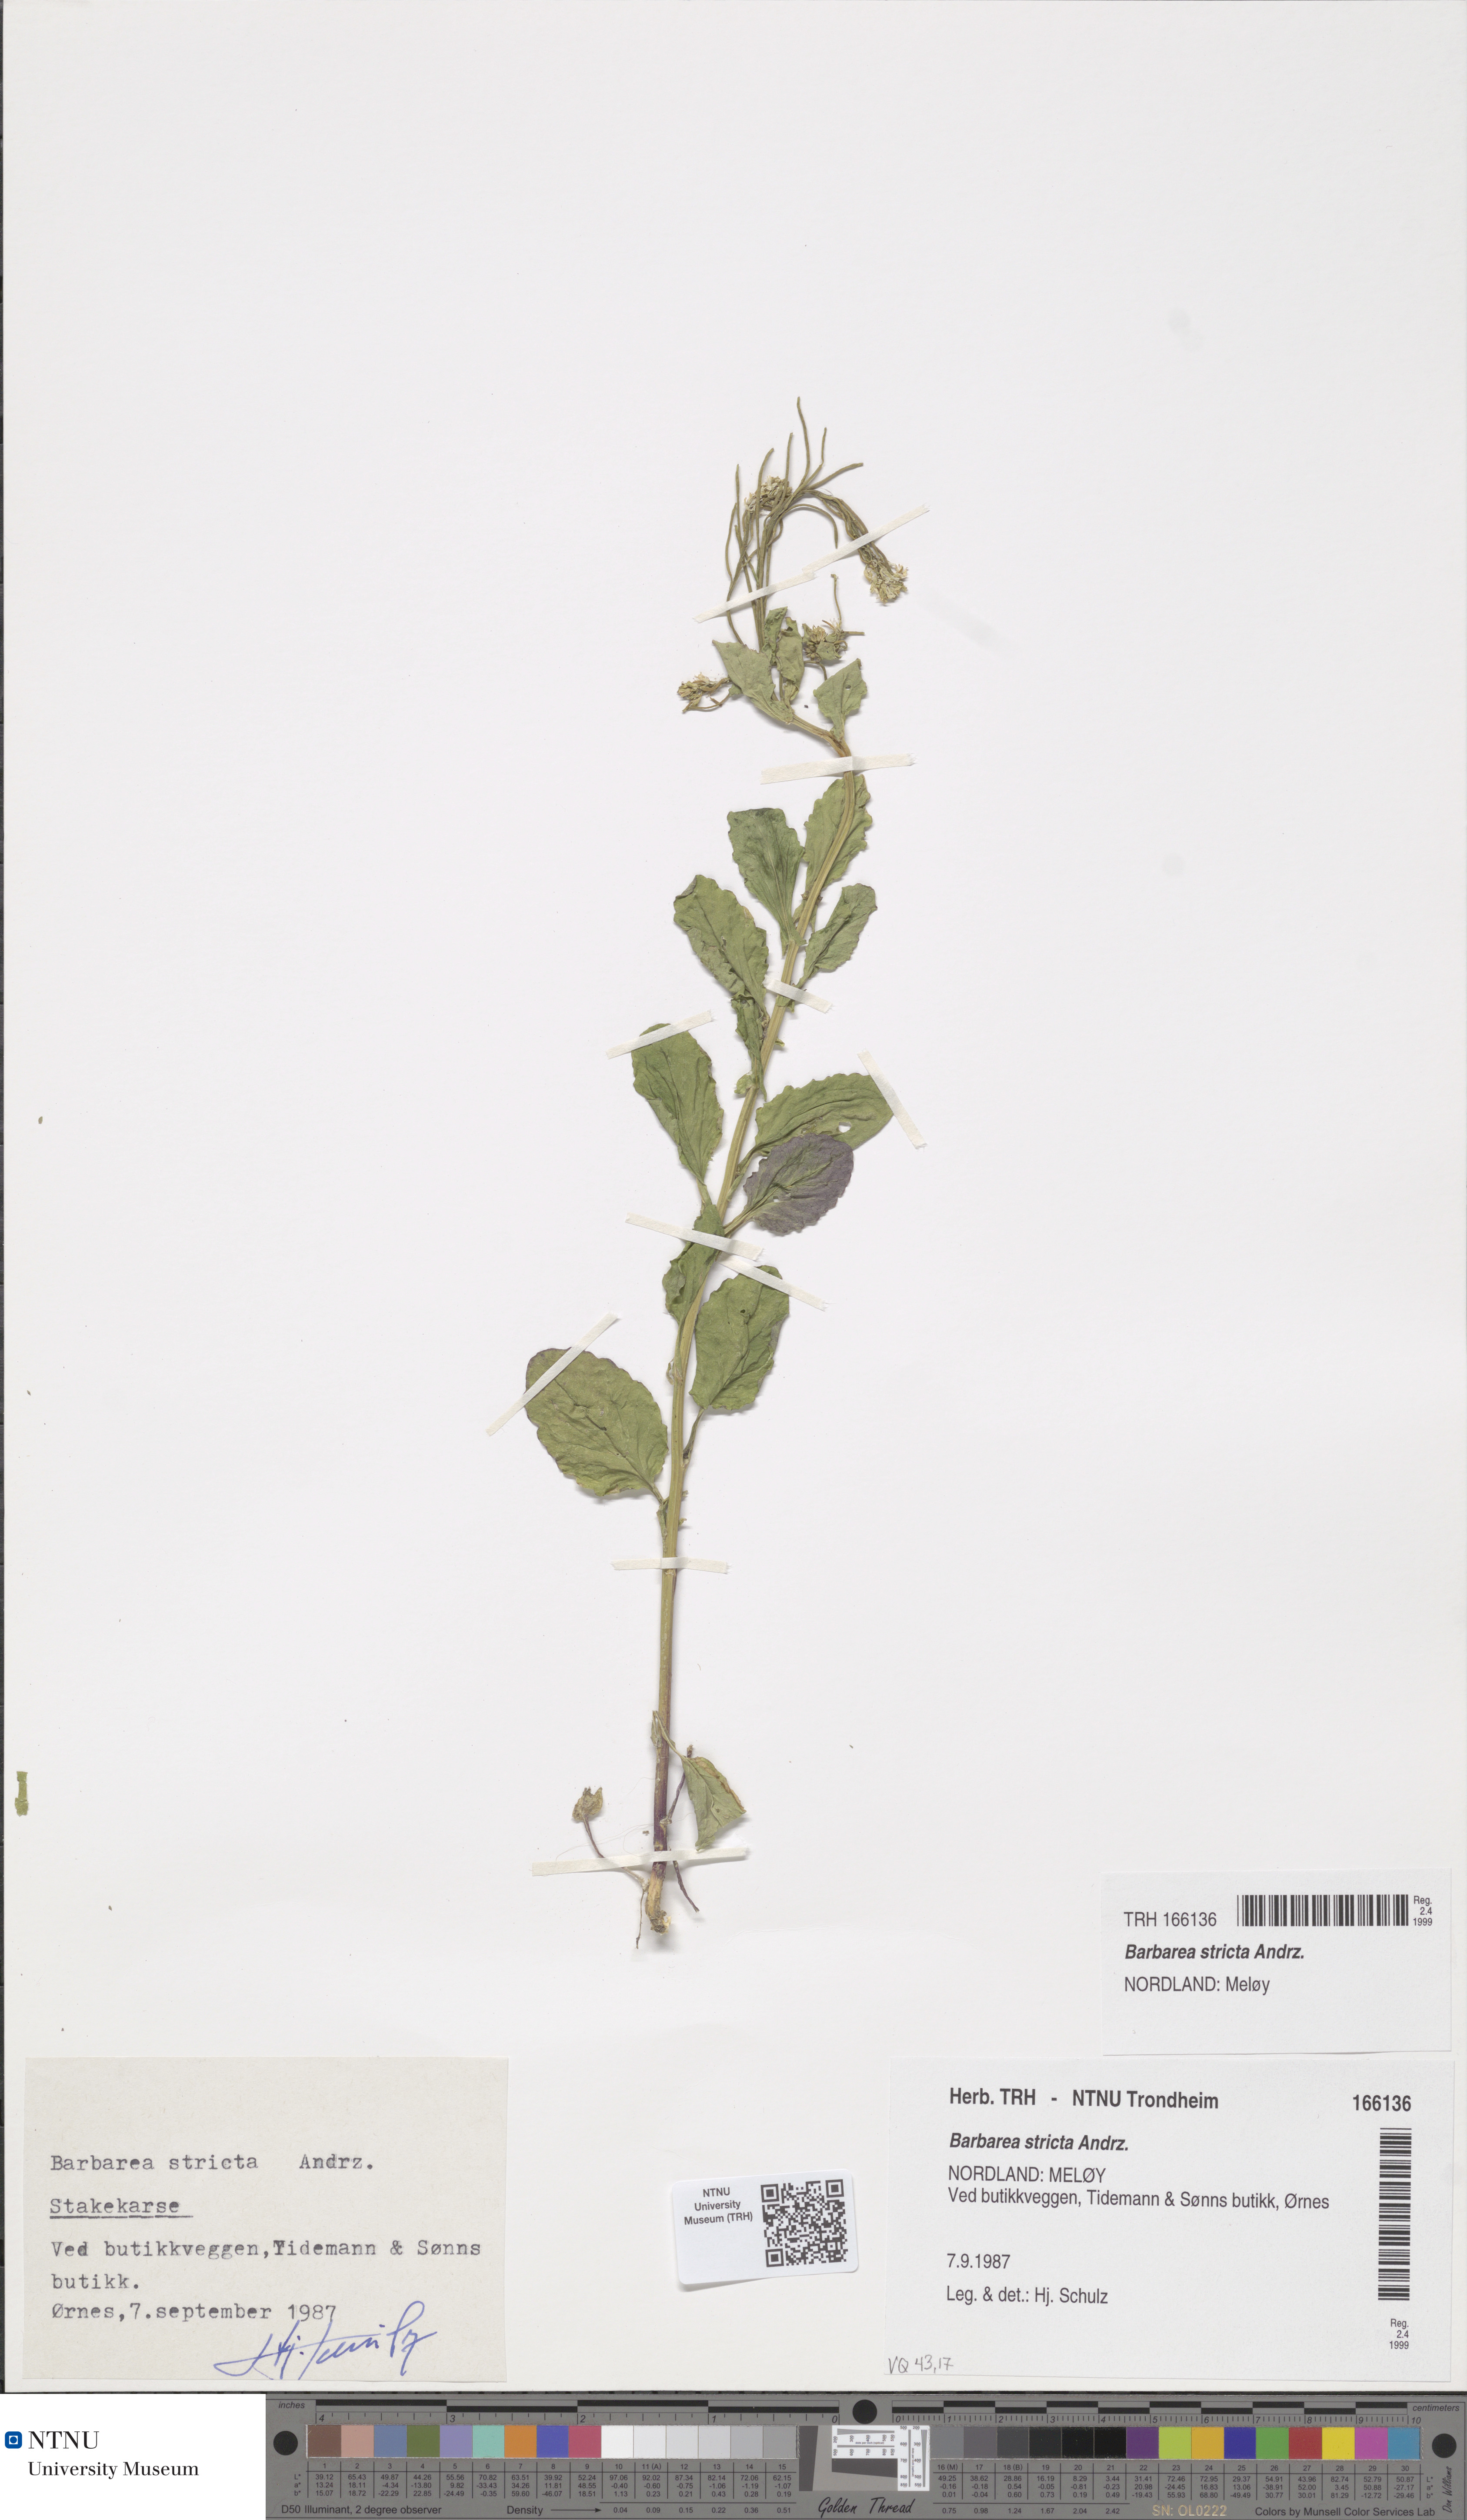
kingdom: Plantae
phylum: Tracheophyta
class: Magnoliopsida
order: Brassicales
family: Brassicaceae
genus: Barbarea
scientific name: Barbarea stricta
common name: Small-flowered winter-cress
